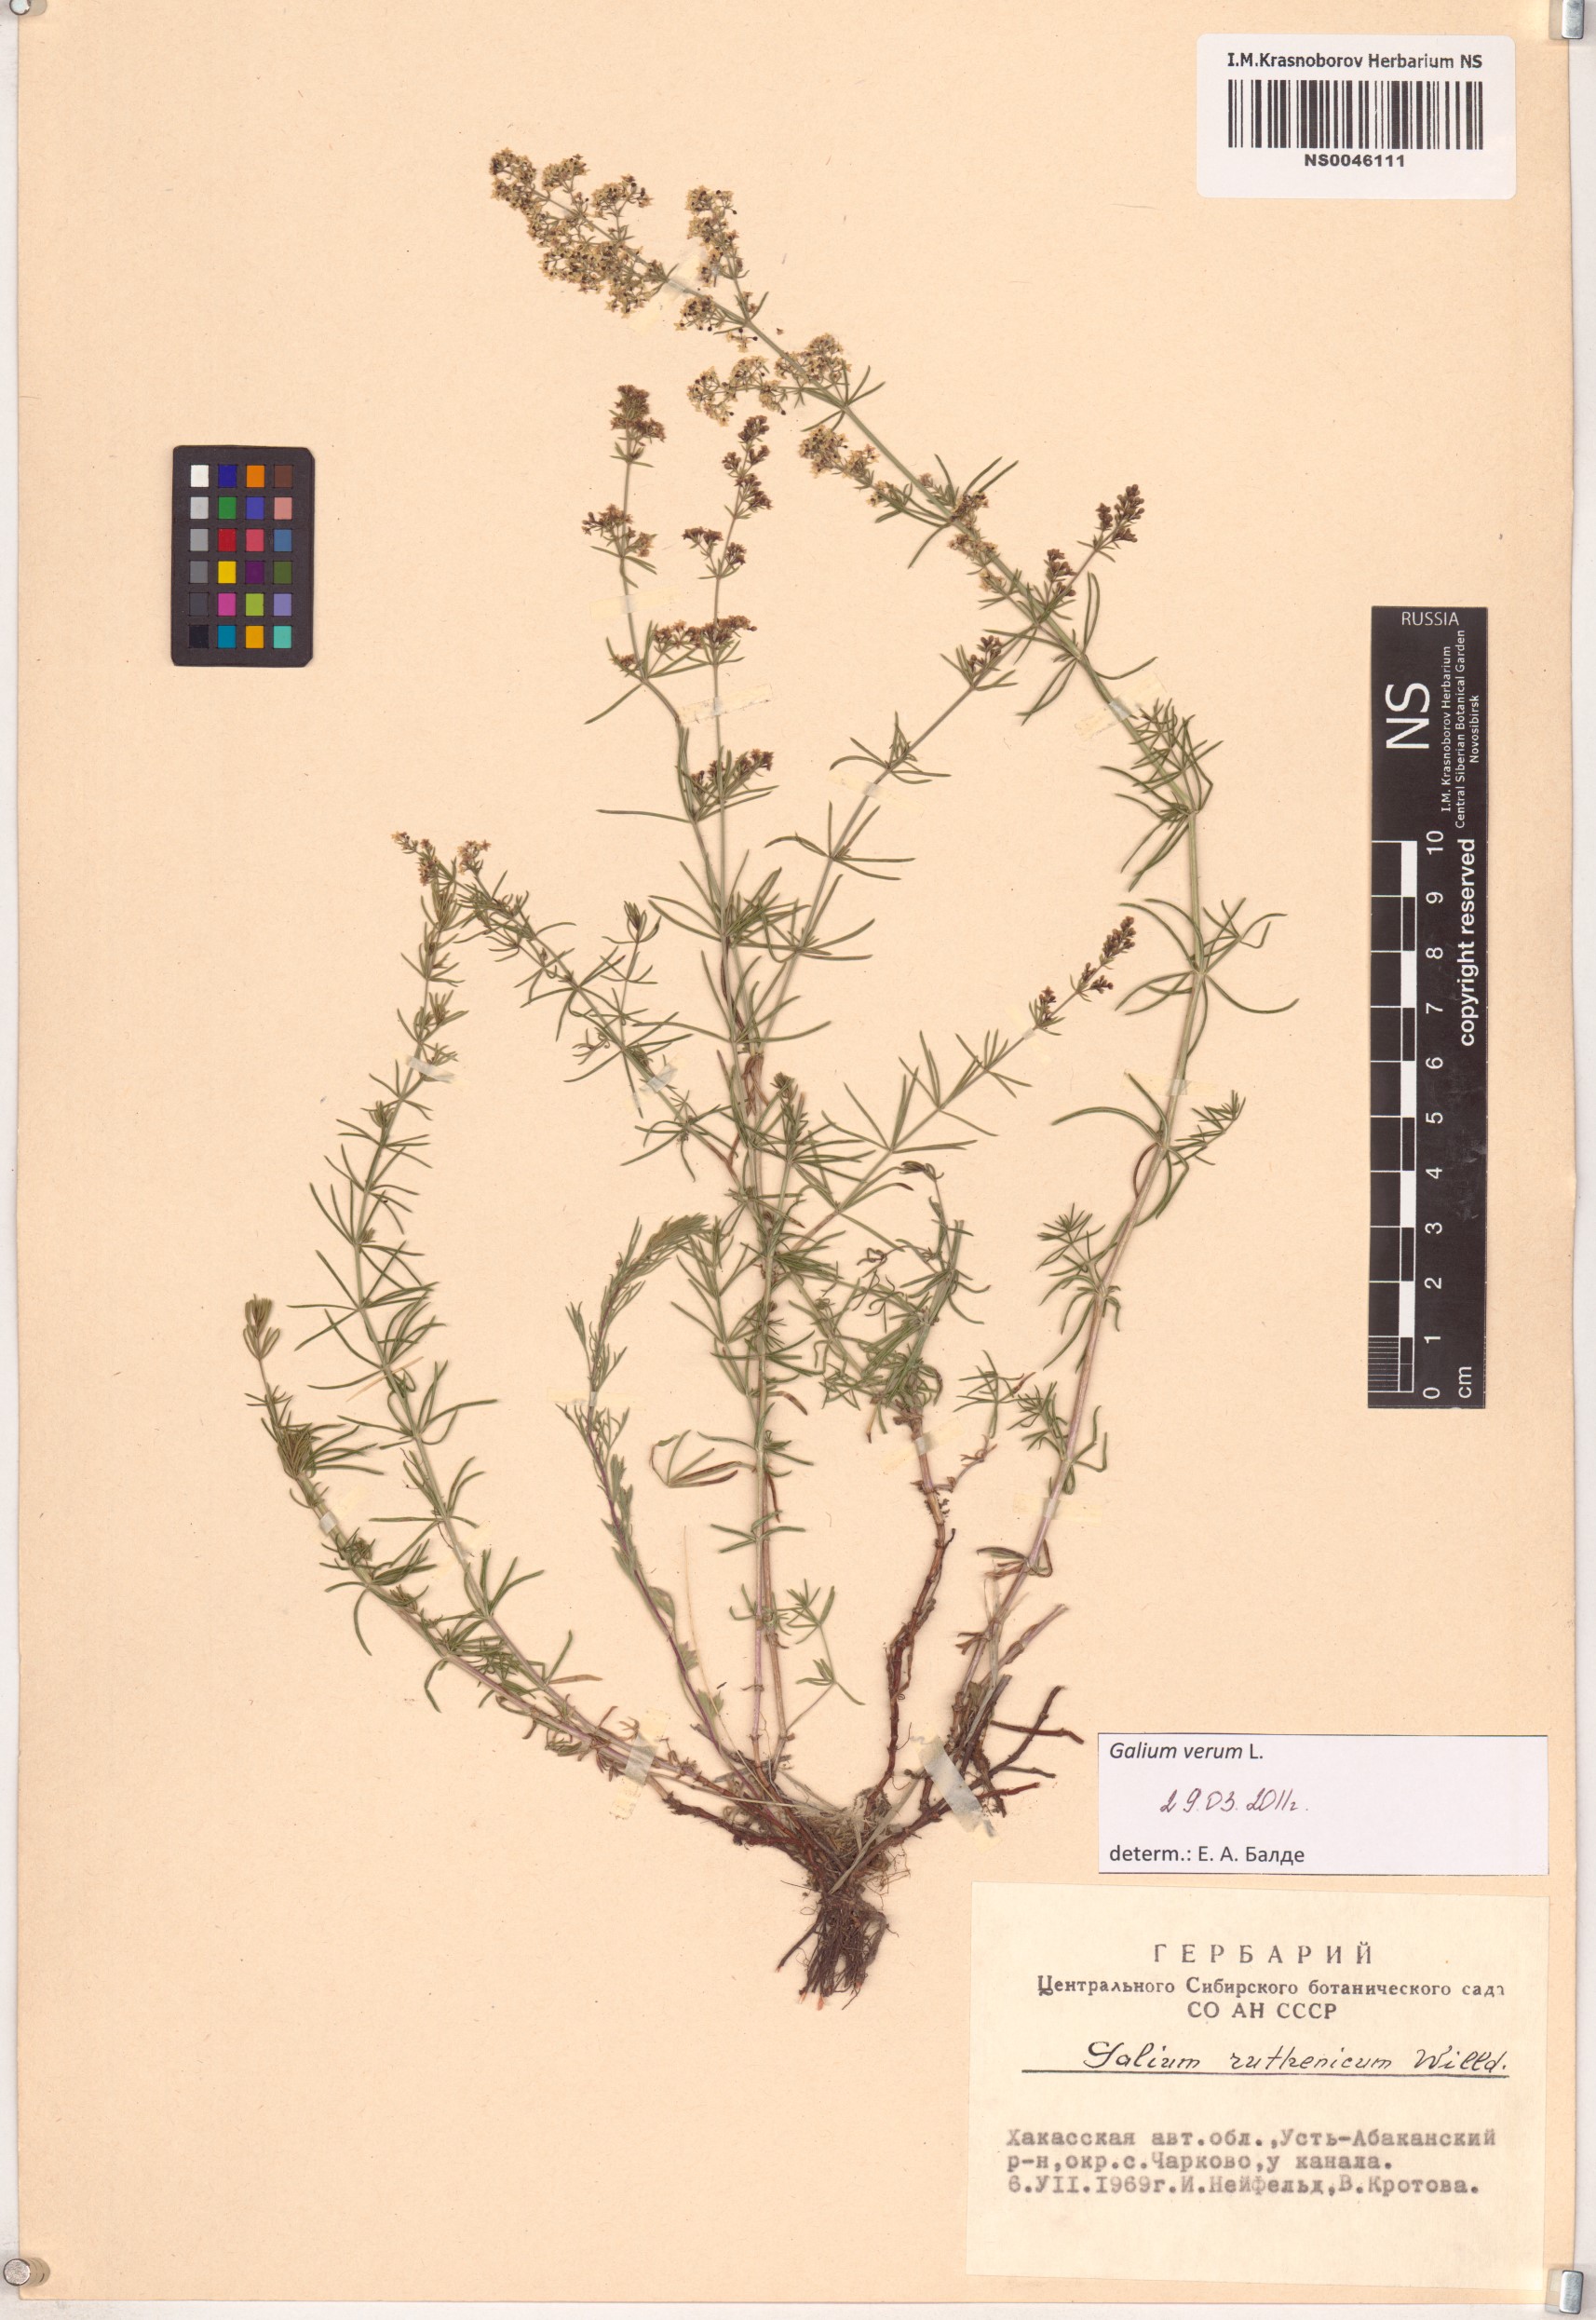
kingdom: Plantae
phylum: Tracheophyta
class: Magnoliopsida
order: Gentianales
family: Rubiaceae
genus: Galium
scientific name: Galium verum
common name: Lady's bedstraw
